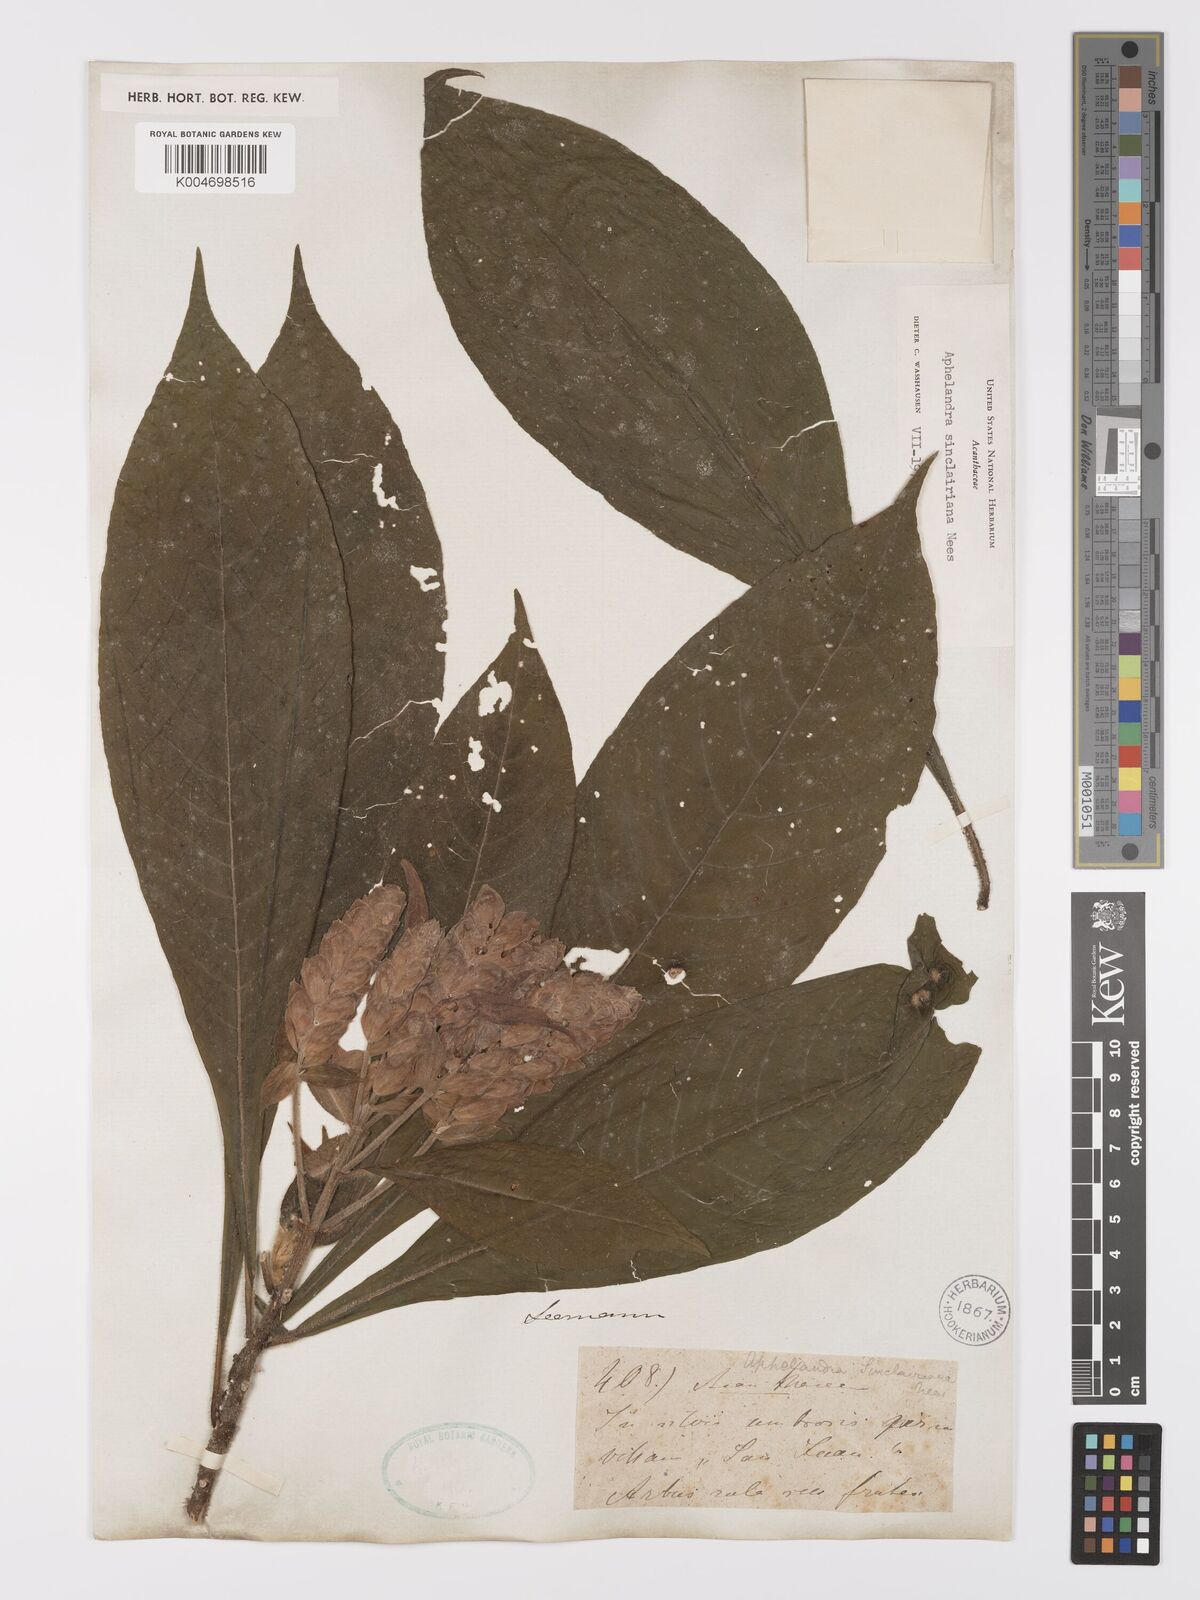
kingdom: Plantae
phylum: Tracheophyta
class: Magnoliopsida
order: Lamiales
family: Acanthaceae
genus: Aphelandra
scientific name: Aphelandra sinclairiana
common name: Coral aphelandra
